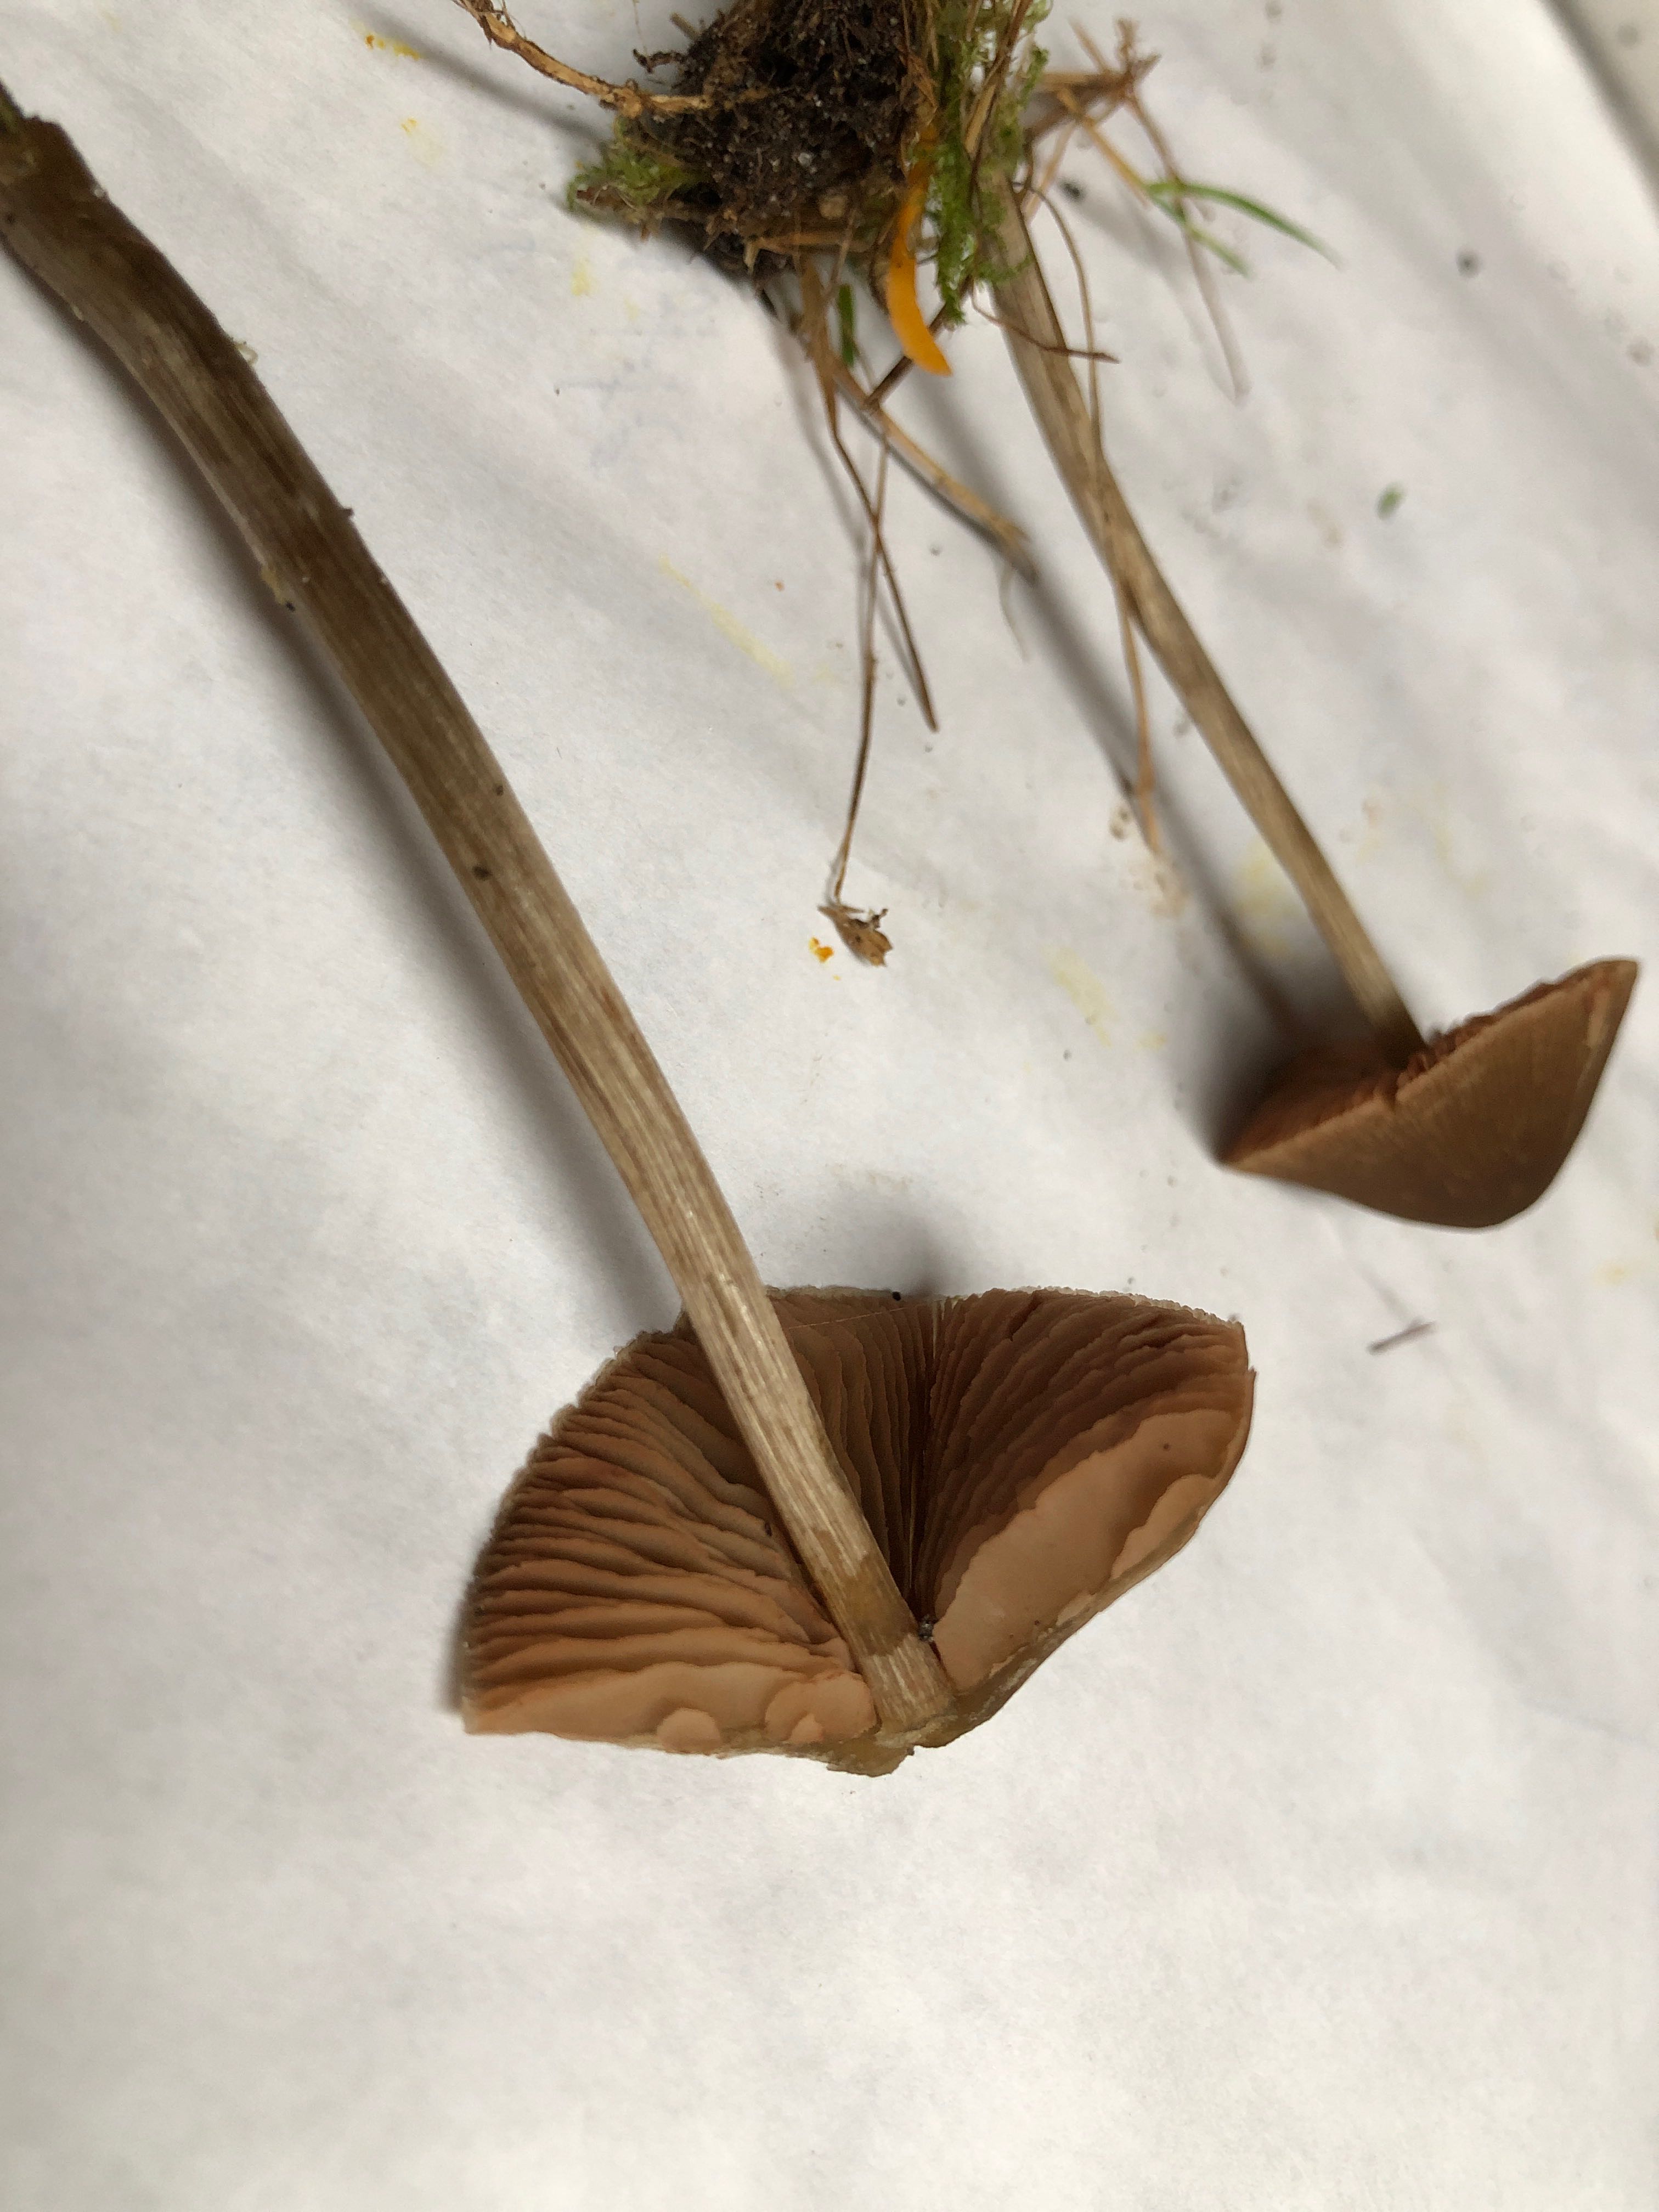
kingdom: Fungi
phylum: Basidiomycota
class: Agaricomycetes
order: Agaricales
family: Entolomataceae
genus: Entoloma
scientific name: Entoloma conferendum
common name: stjernesporet rødblad
